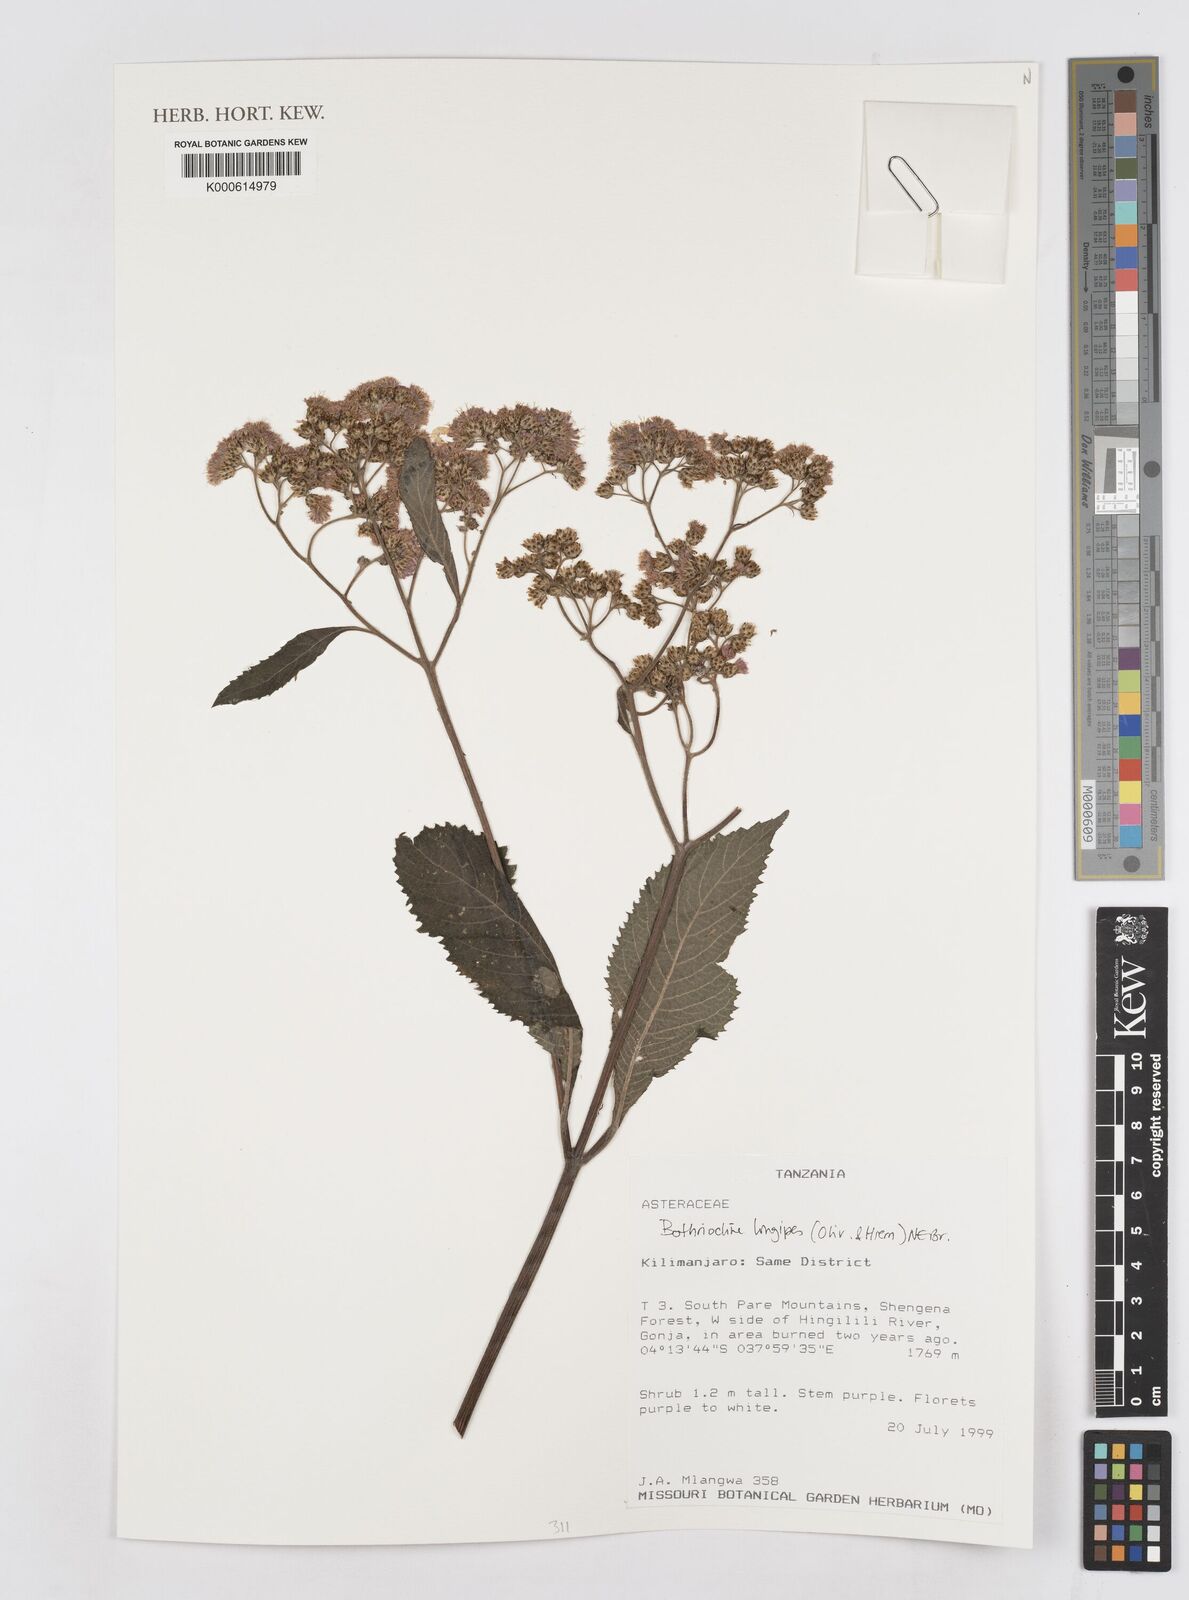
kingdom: Plantae
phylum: Tracheophyta
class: Magnoliopsida
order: Asterales
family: Asteraceae
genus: Bothriocline
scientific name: Bothriocline longipes
